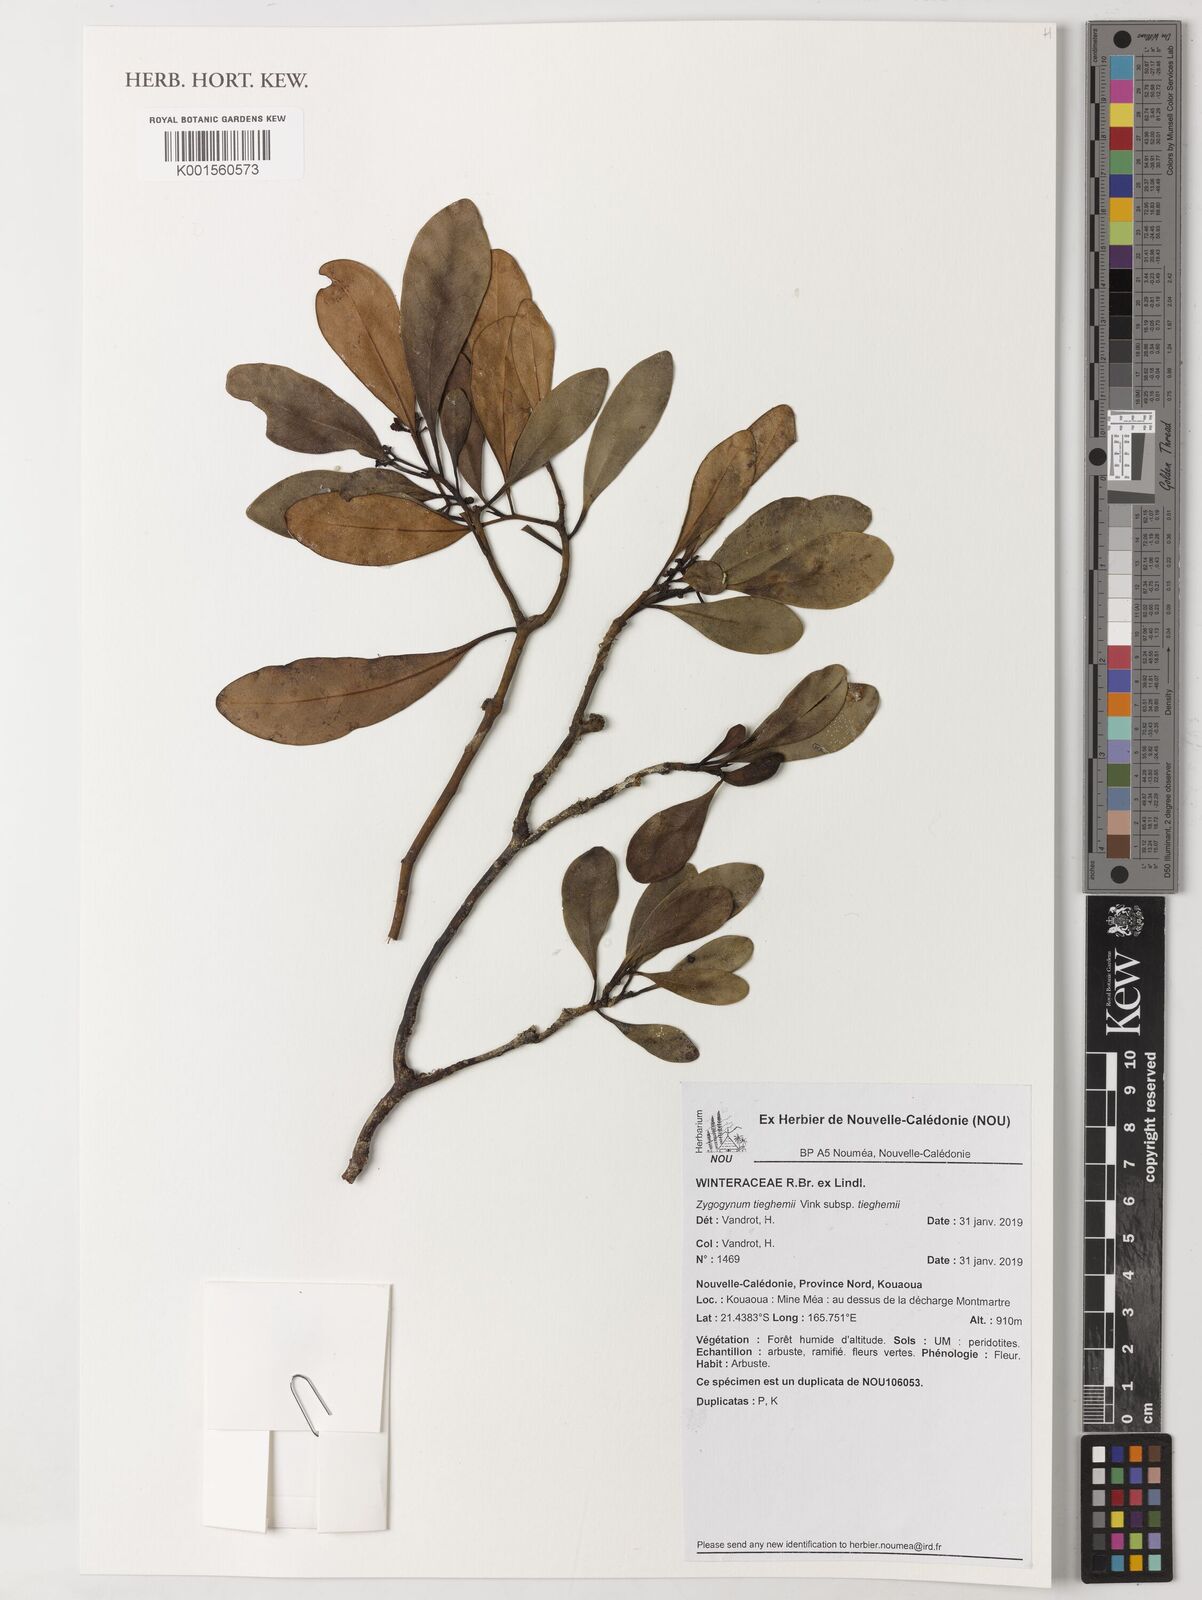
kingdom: Plantae
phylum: Tracheophyta
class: Magnoliopsida
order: Canellales
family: Winteraceae
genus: Zygogynum
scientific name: Zygogynum tieghemii
